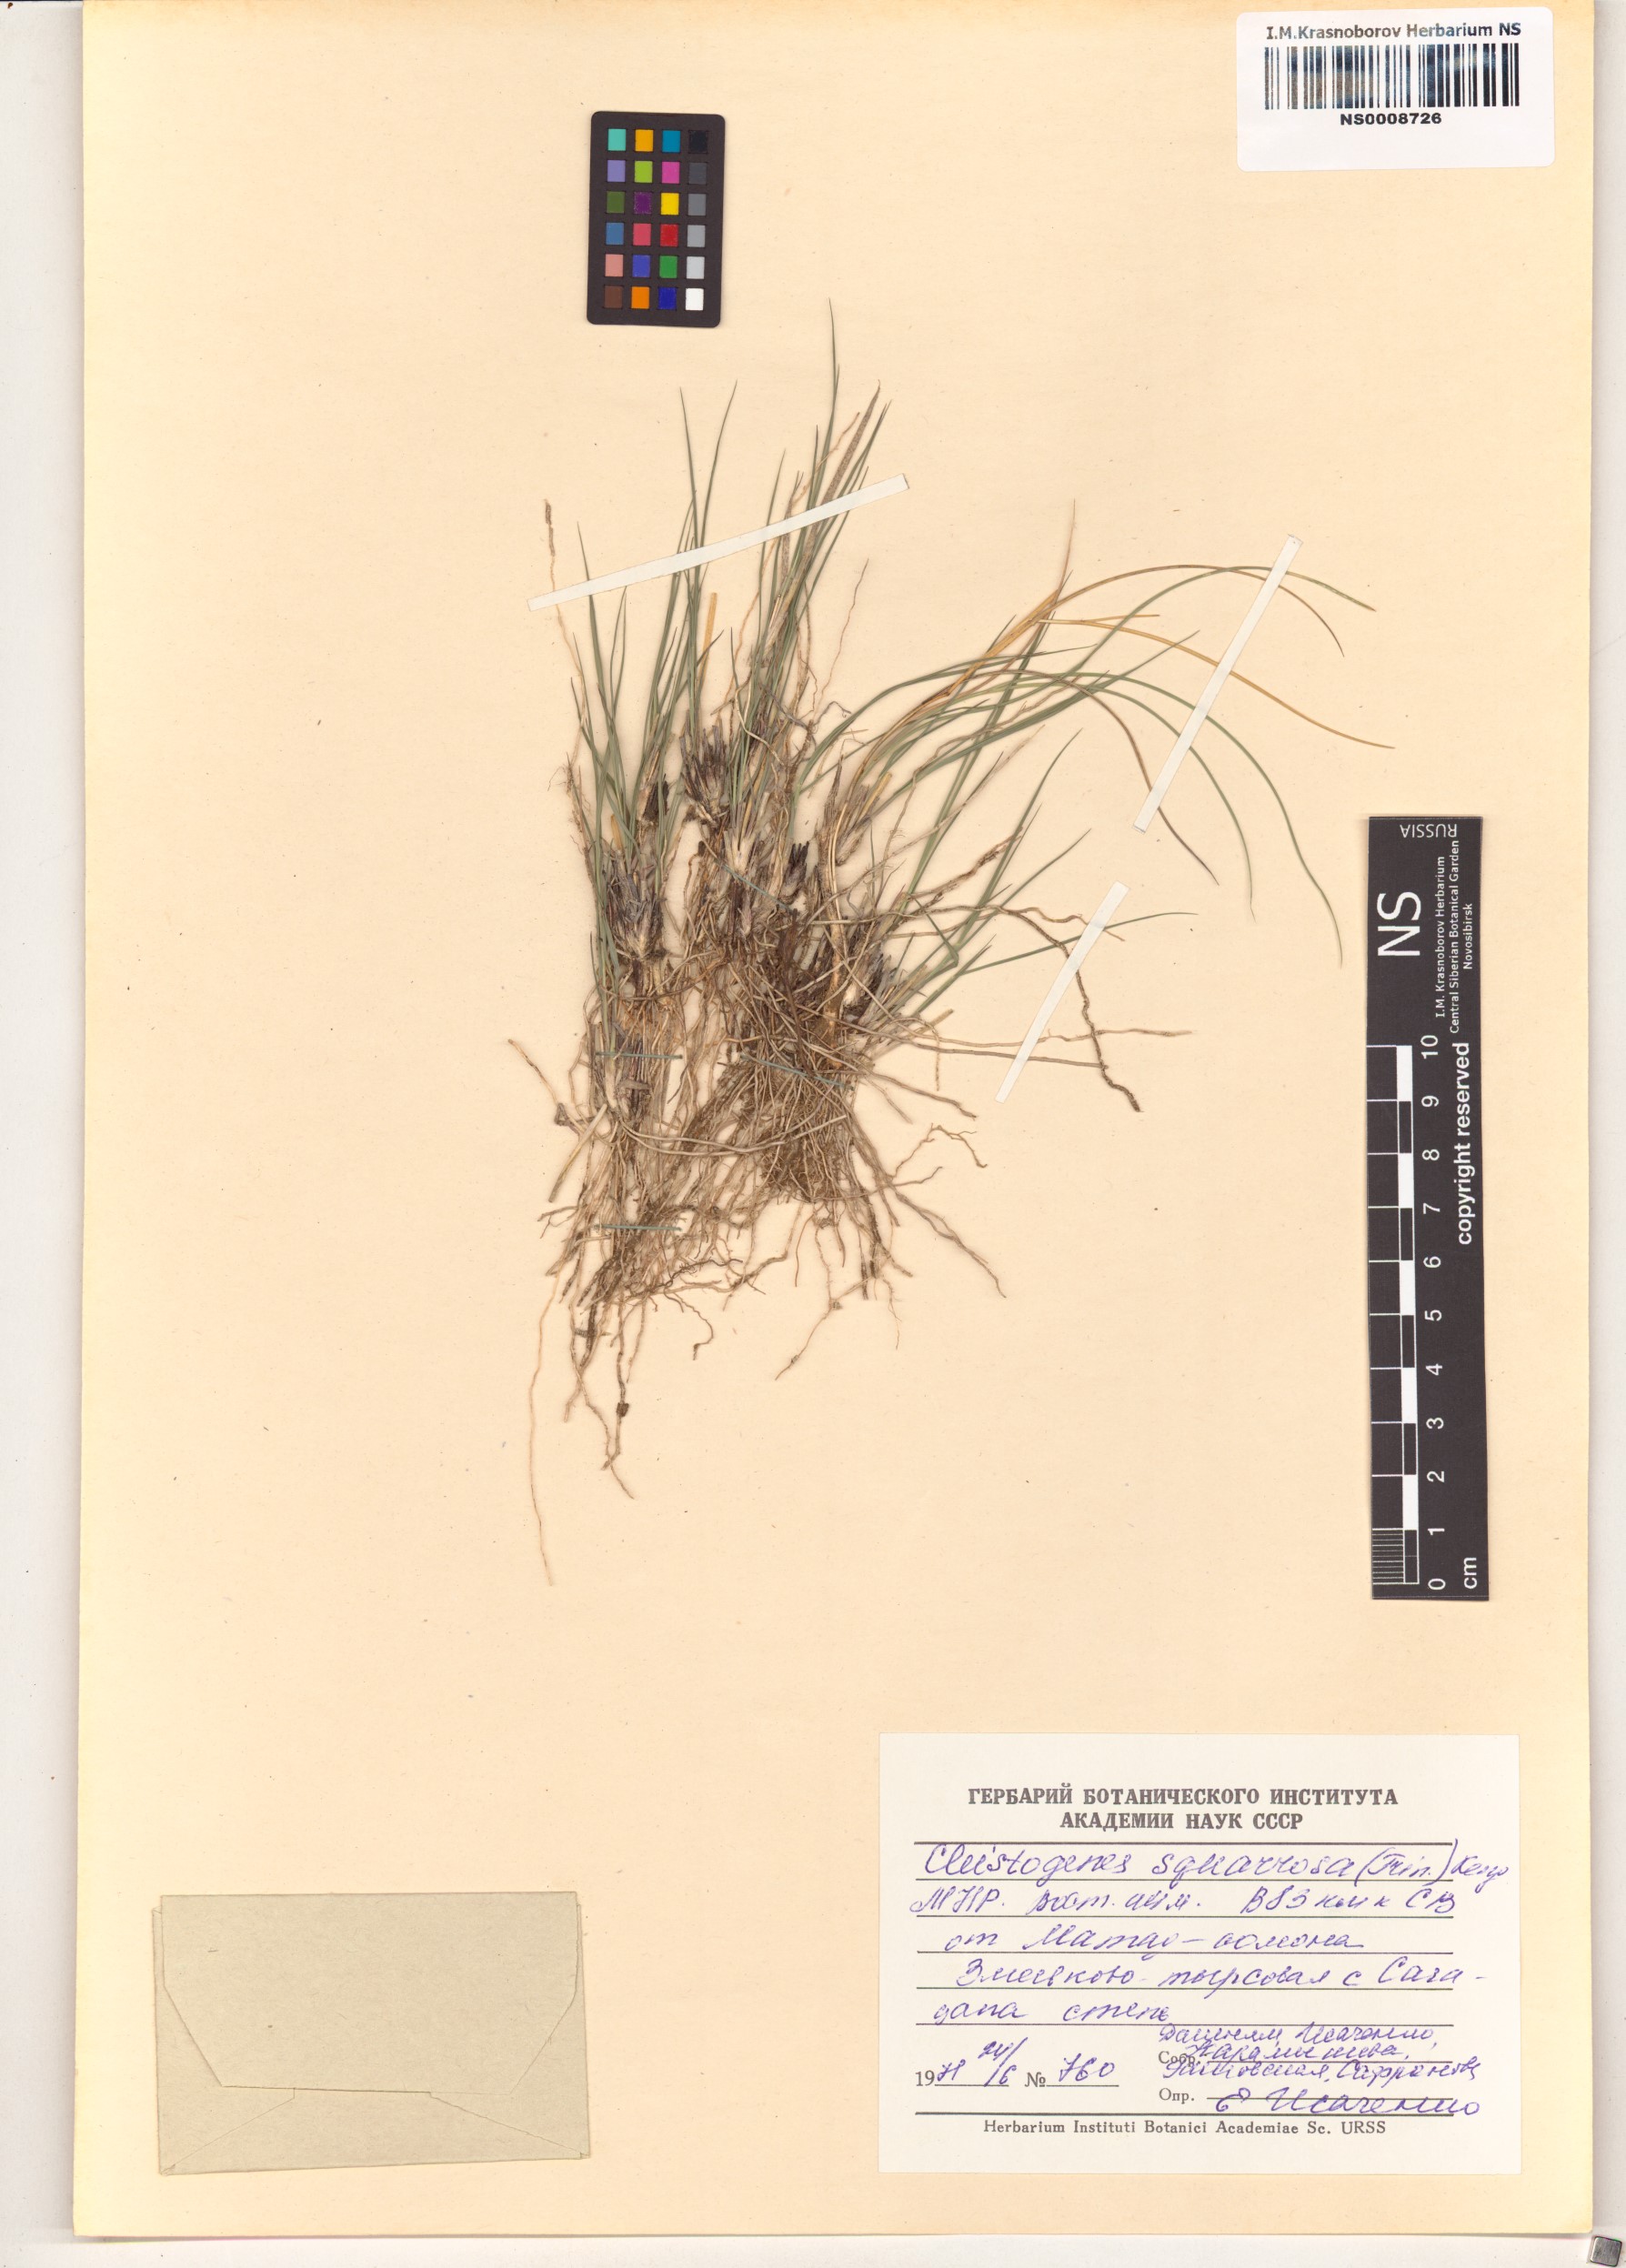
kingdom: Plantae
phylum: Tracheophyta
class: Liliopsida
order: Poales
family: Poaceae
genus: Cleistogenes
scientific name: Cleistogenes squarrosa
